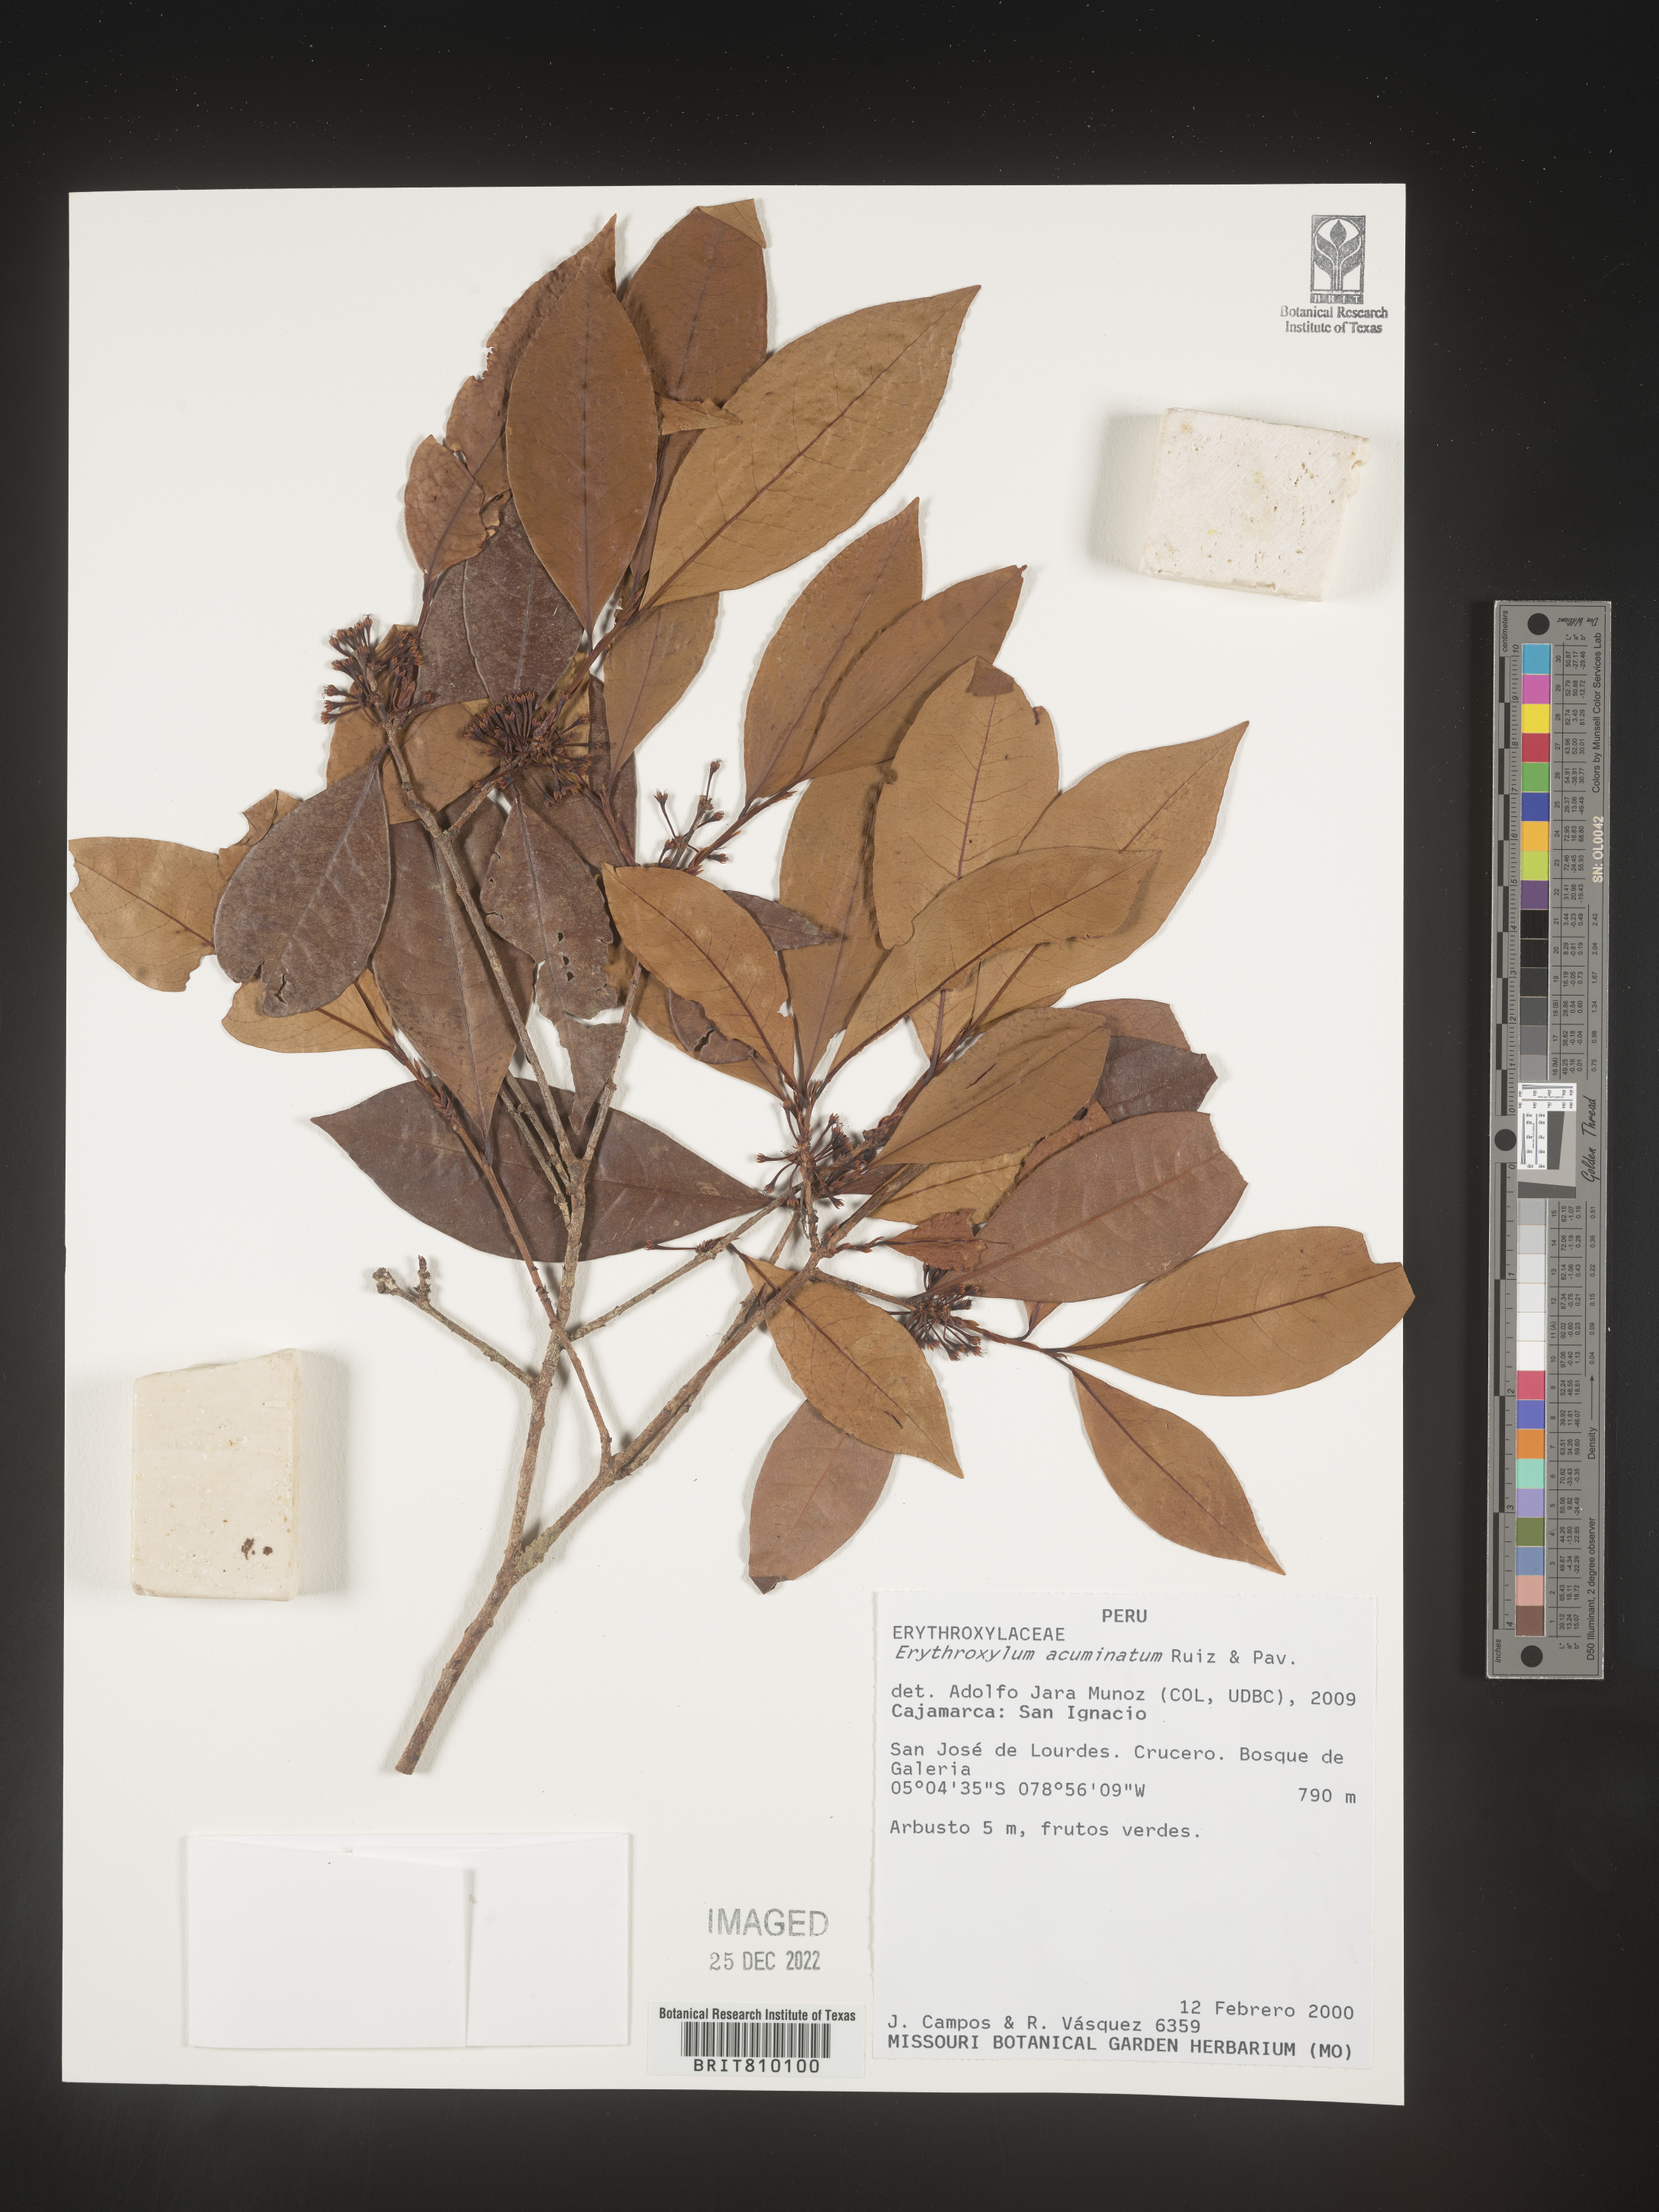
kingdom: Plantae
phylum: Tracheophyta
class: Magnoliopsida
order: Malpighiales
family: Erythroxylaceae
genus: Erythroxylum
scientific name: Erythroxylum
